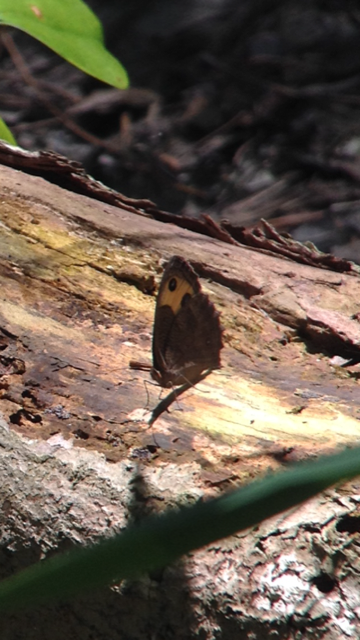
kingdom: Animalia
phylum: Arthropoda
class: Insecta
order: Lepidoptera
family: Nymphalidae
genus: Cercyonis
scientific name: Cercyonis pegala
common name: Common Wood-Nymph
